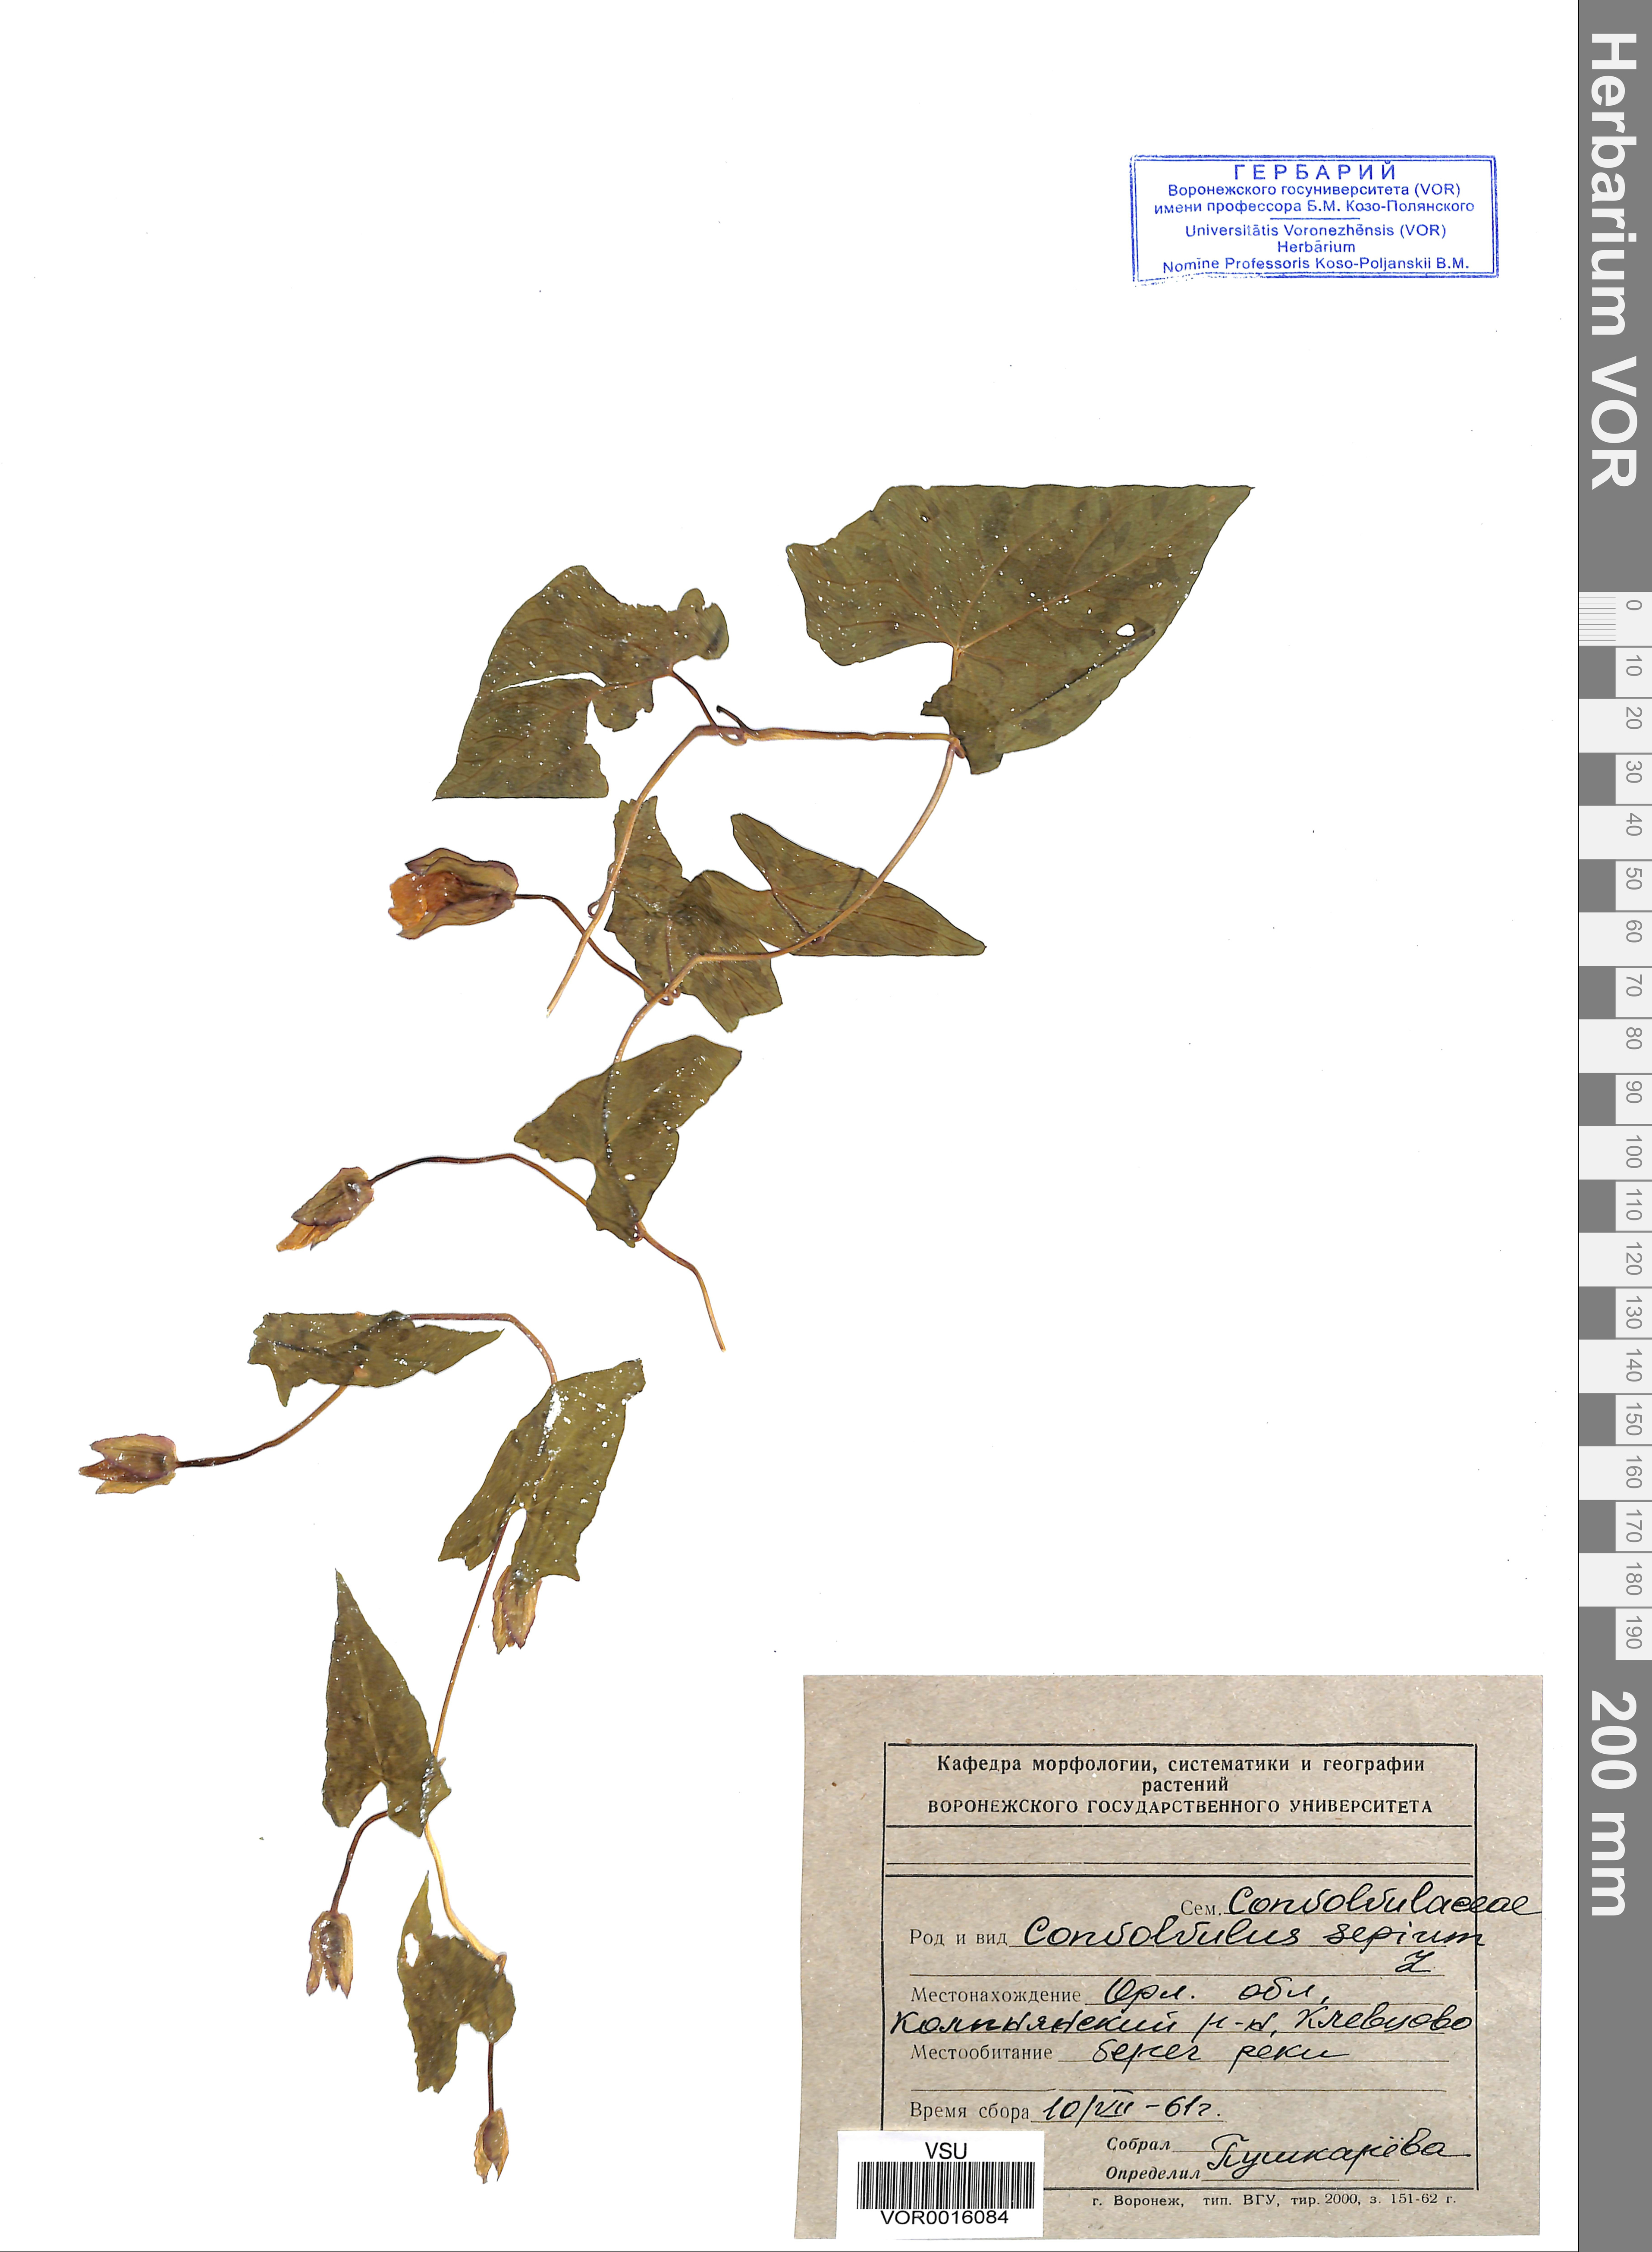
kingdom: Plantae
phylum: Tracheophyta
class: Magnoliopsida
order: Solanales
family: Convolvulaceae
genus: Calystegia
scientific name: Calystegia sepium
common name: Hedge bindweed
